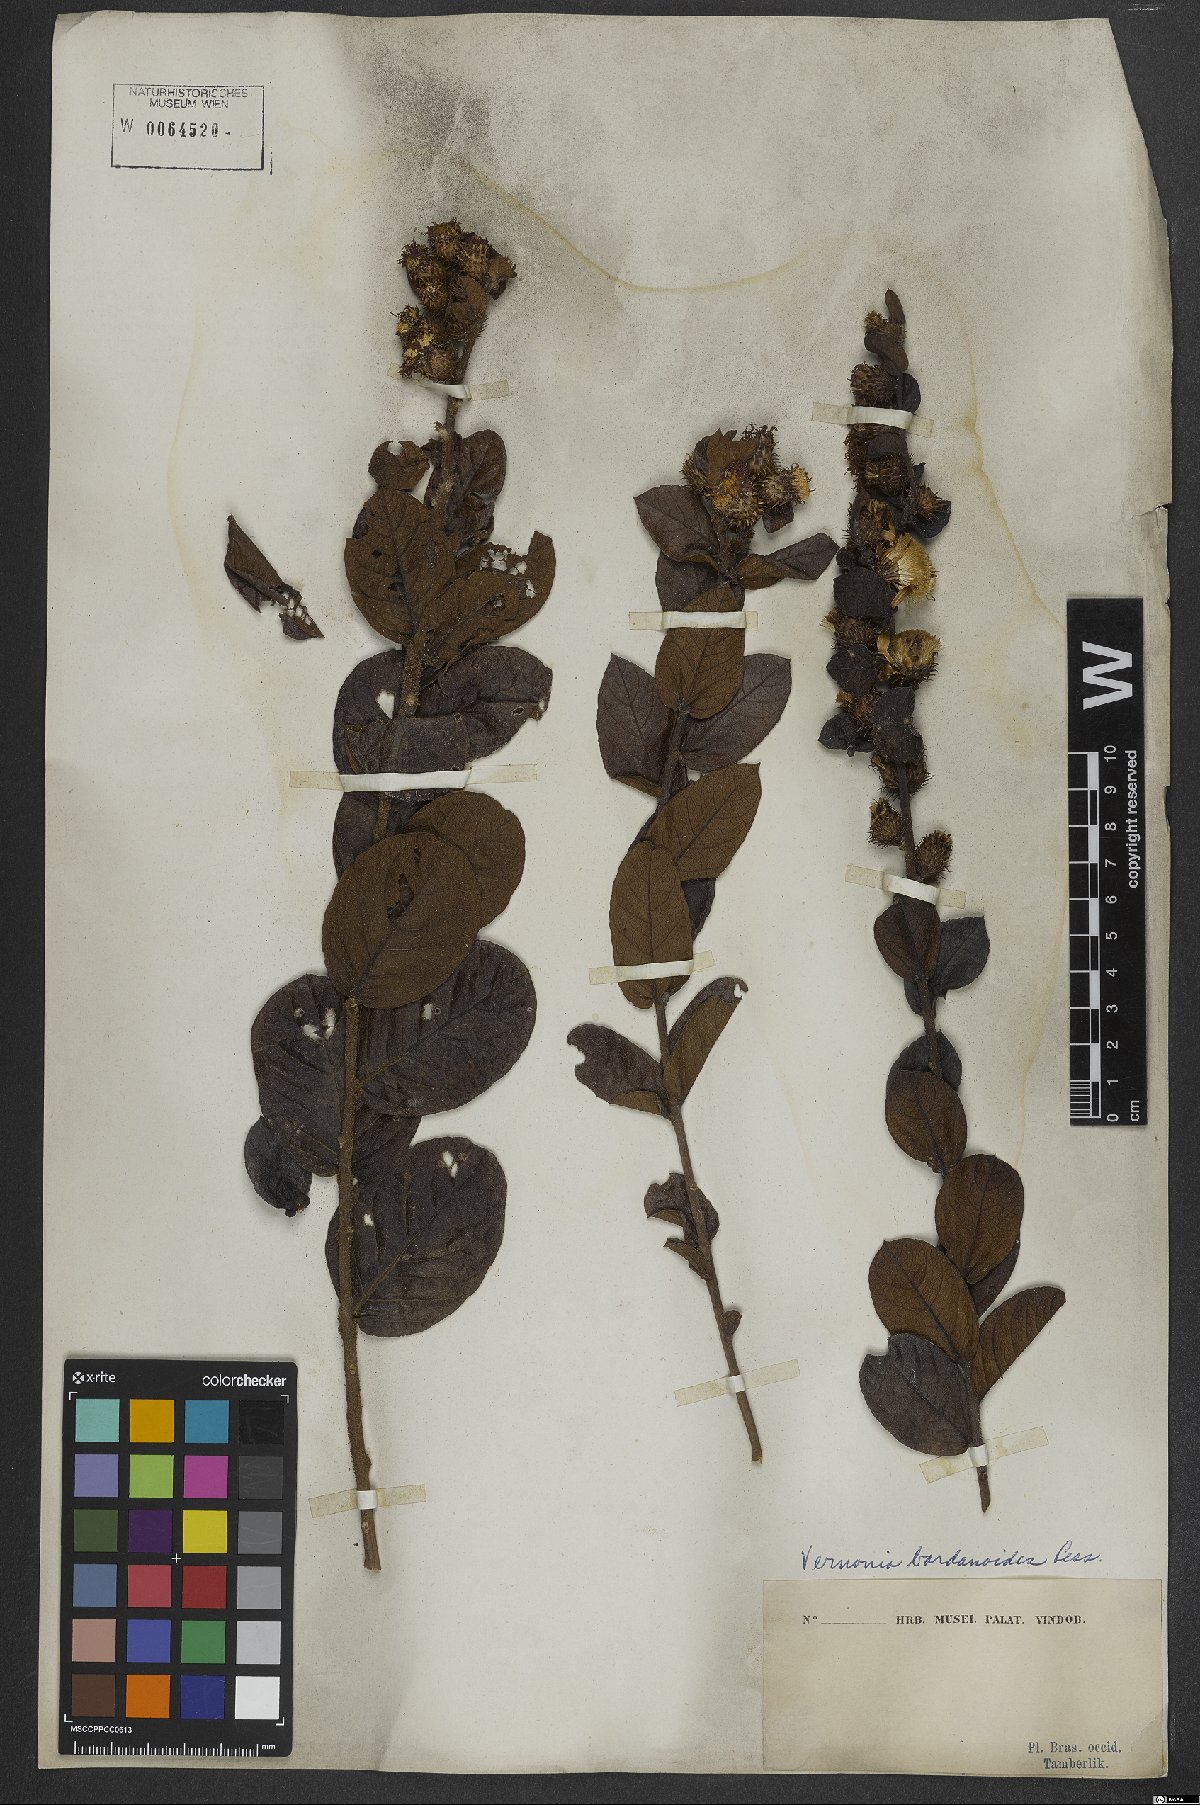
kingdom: Plantae
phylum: Tracheophyta
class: Magnoliopsida
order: Asterales
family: Asteraceae
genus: Lessingianthus
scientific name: Lessingianthus bardanioides
